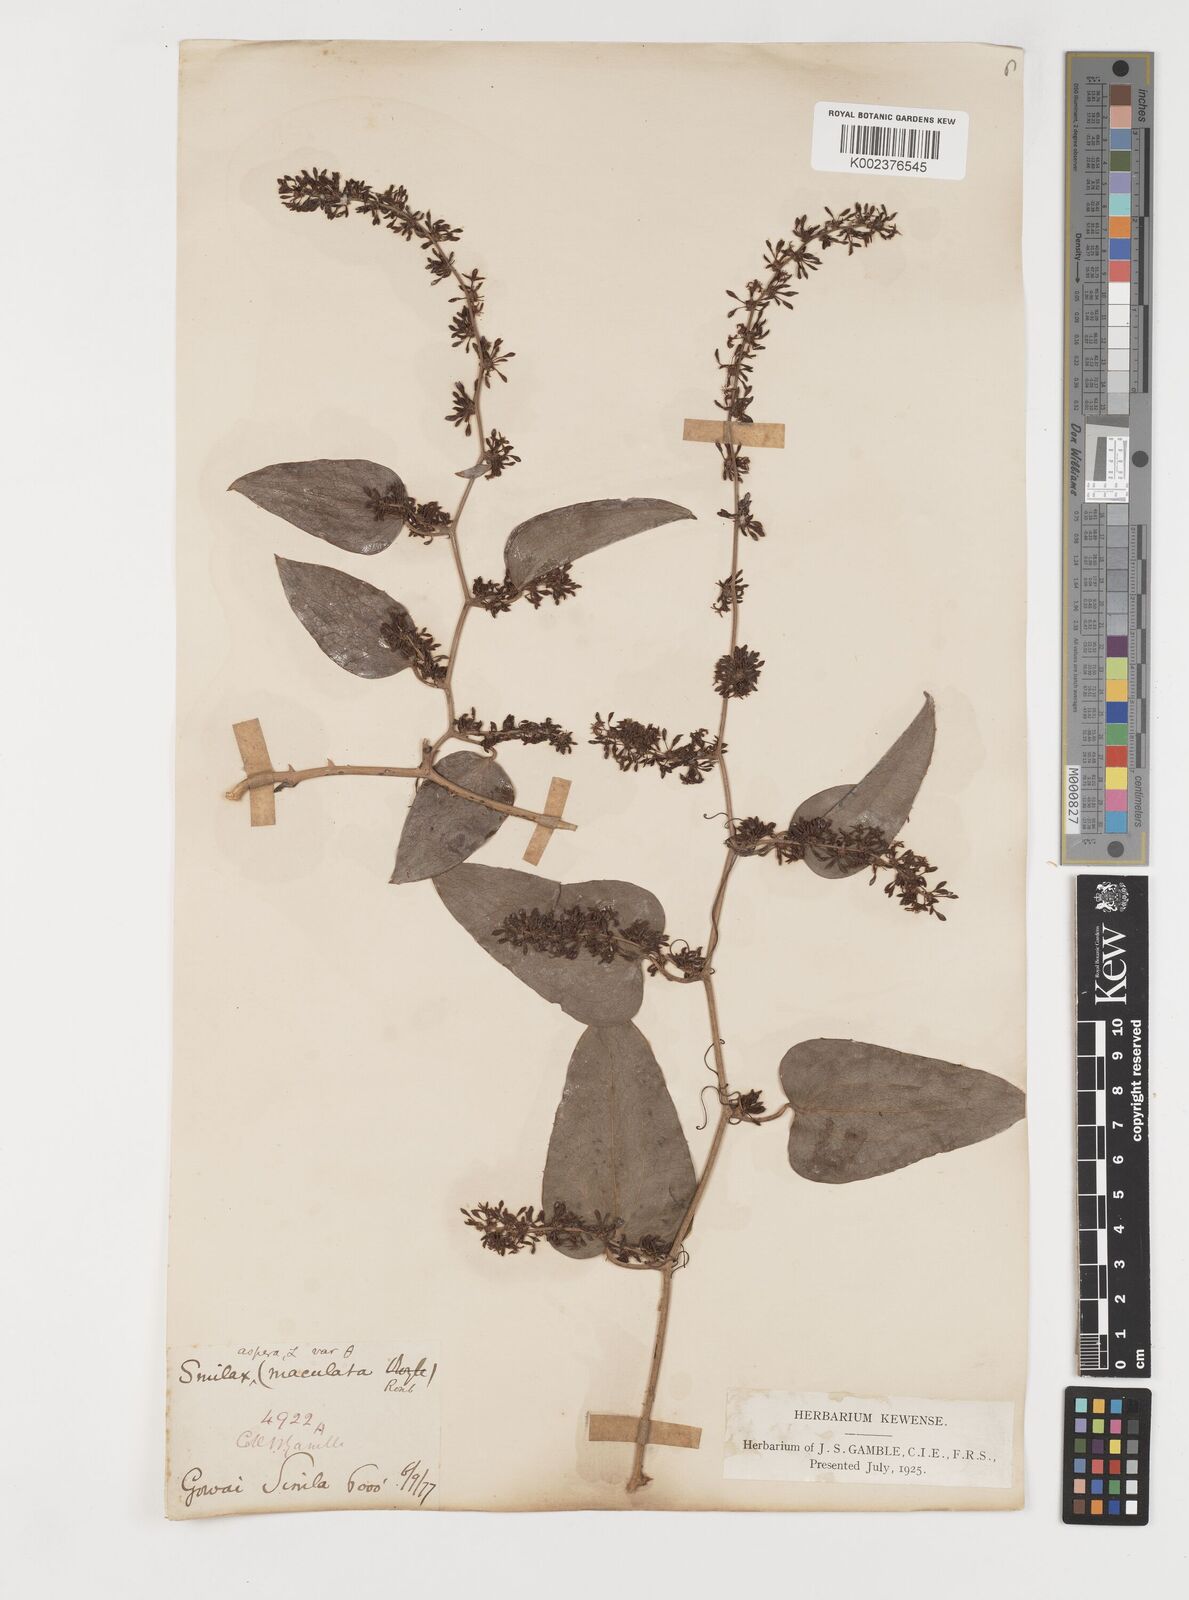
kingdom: Plantae
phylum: Tracheophyta
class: Liliopsida
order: Liliales
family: Smilacaceae
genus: Smilax
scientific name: Smilax aspera
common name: Common smilax
